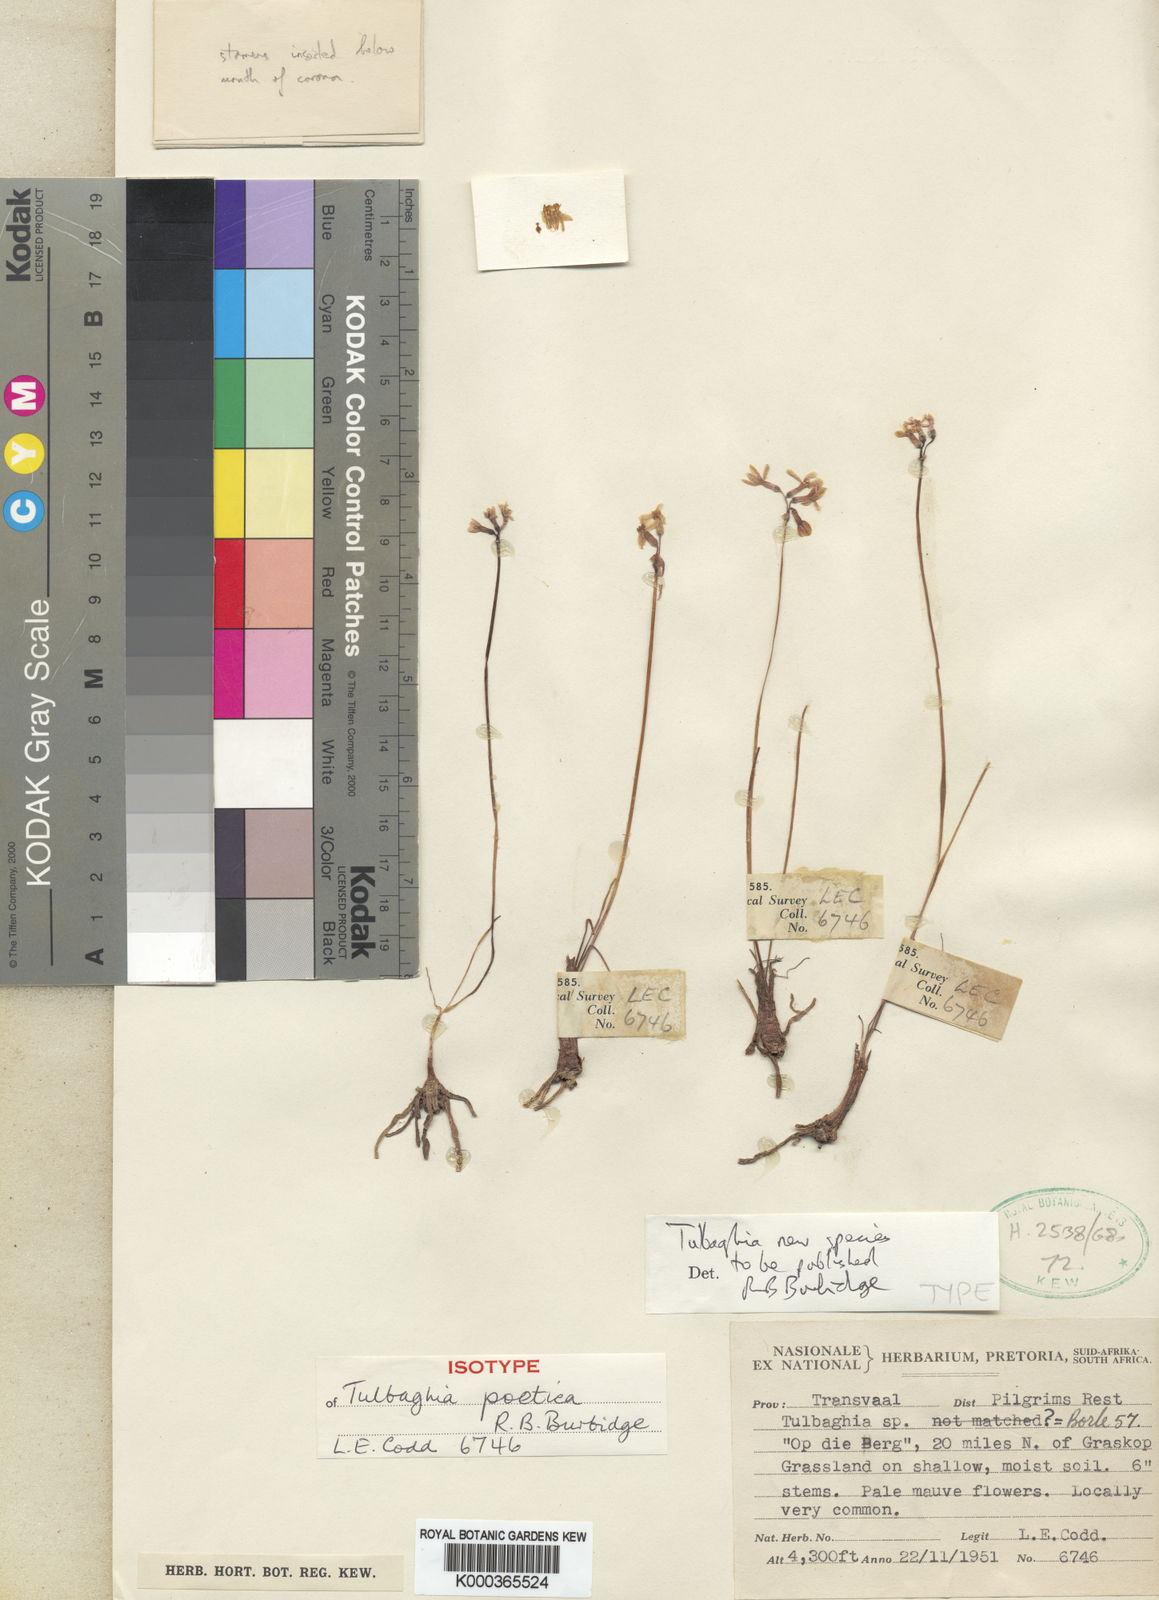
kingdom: Plantae
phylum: Tracheophyta
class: Liliopsida
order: Asparagales
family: Amaryllidaceae
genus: Tulbaghia
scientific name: Tulbaghia coddii
